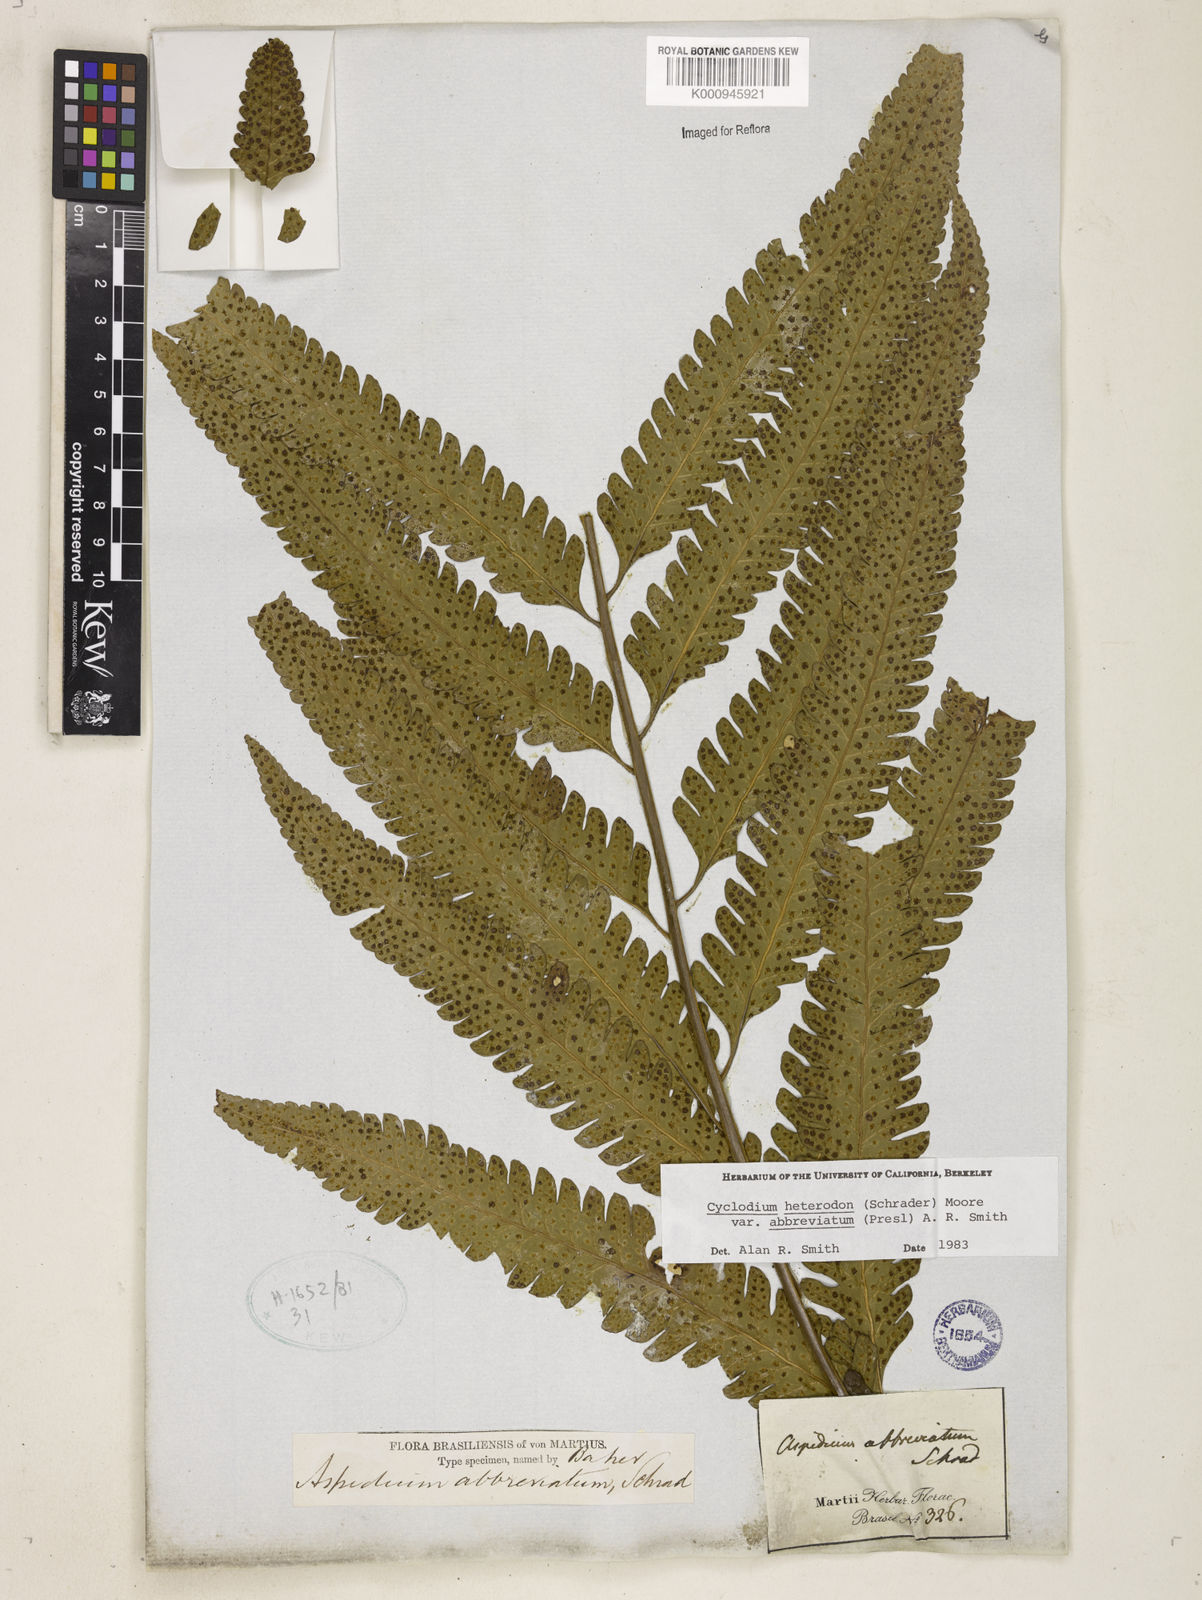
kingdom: Plantae
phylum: Tracheophyta
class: Polypodiopsida
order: Polypodiales
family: Dryopteridaceae
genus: Cyclodium
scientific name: Cyclodium heterodon
